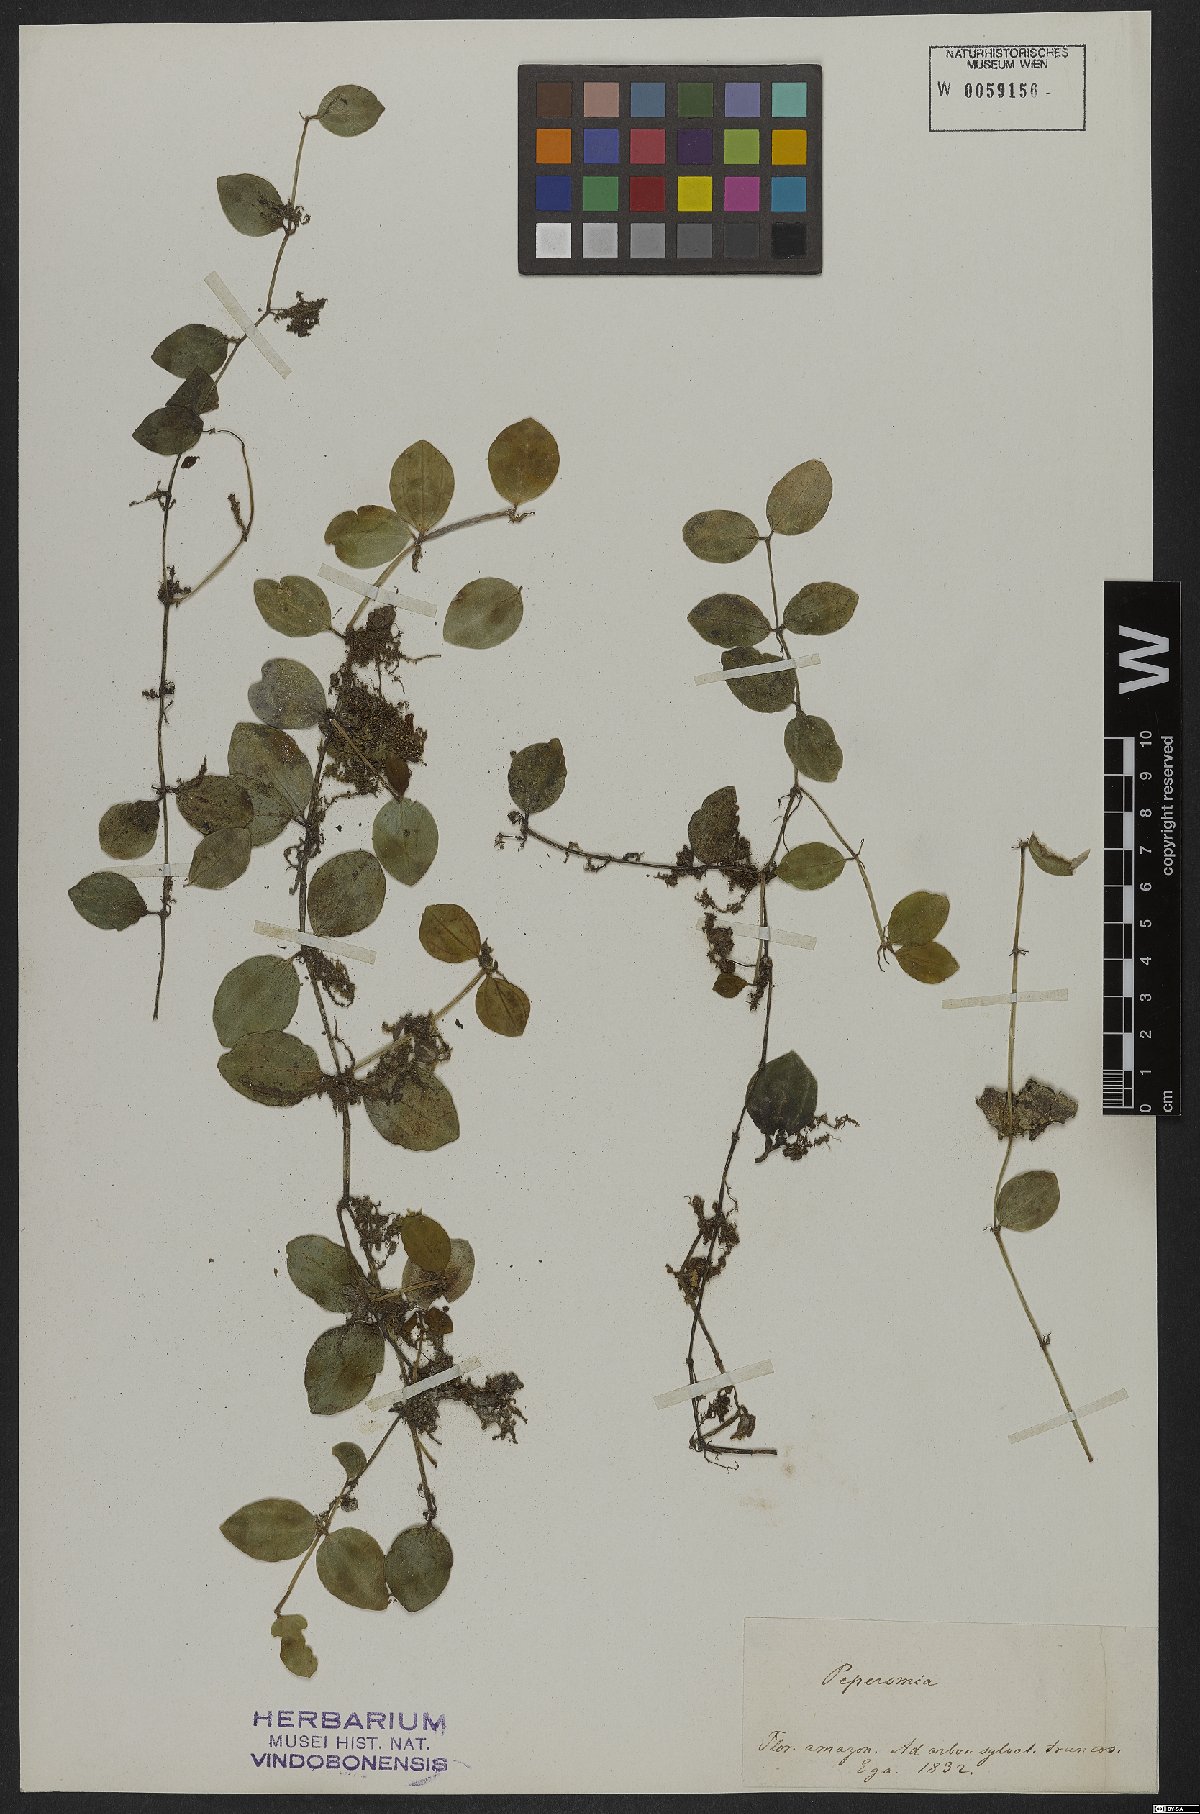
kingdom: Plantae
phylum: Tracheophyta
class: Magnoliopsida
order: Piperales
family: Piperaceae
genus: Peperomia
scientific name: Peperomia quadrangularis
